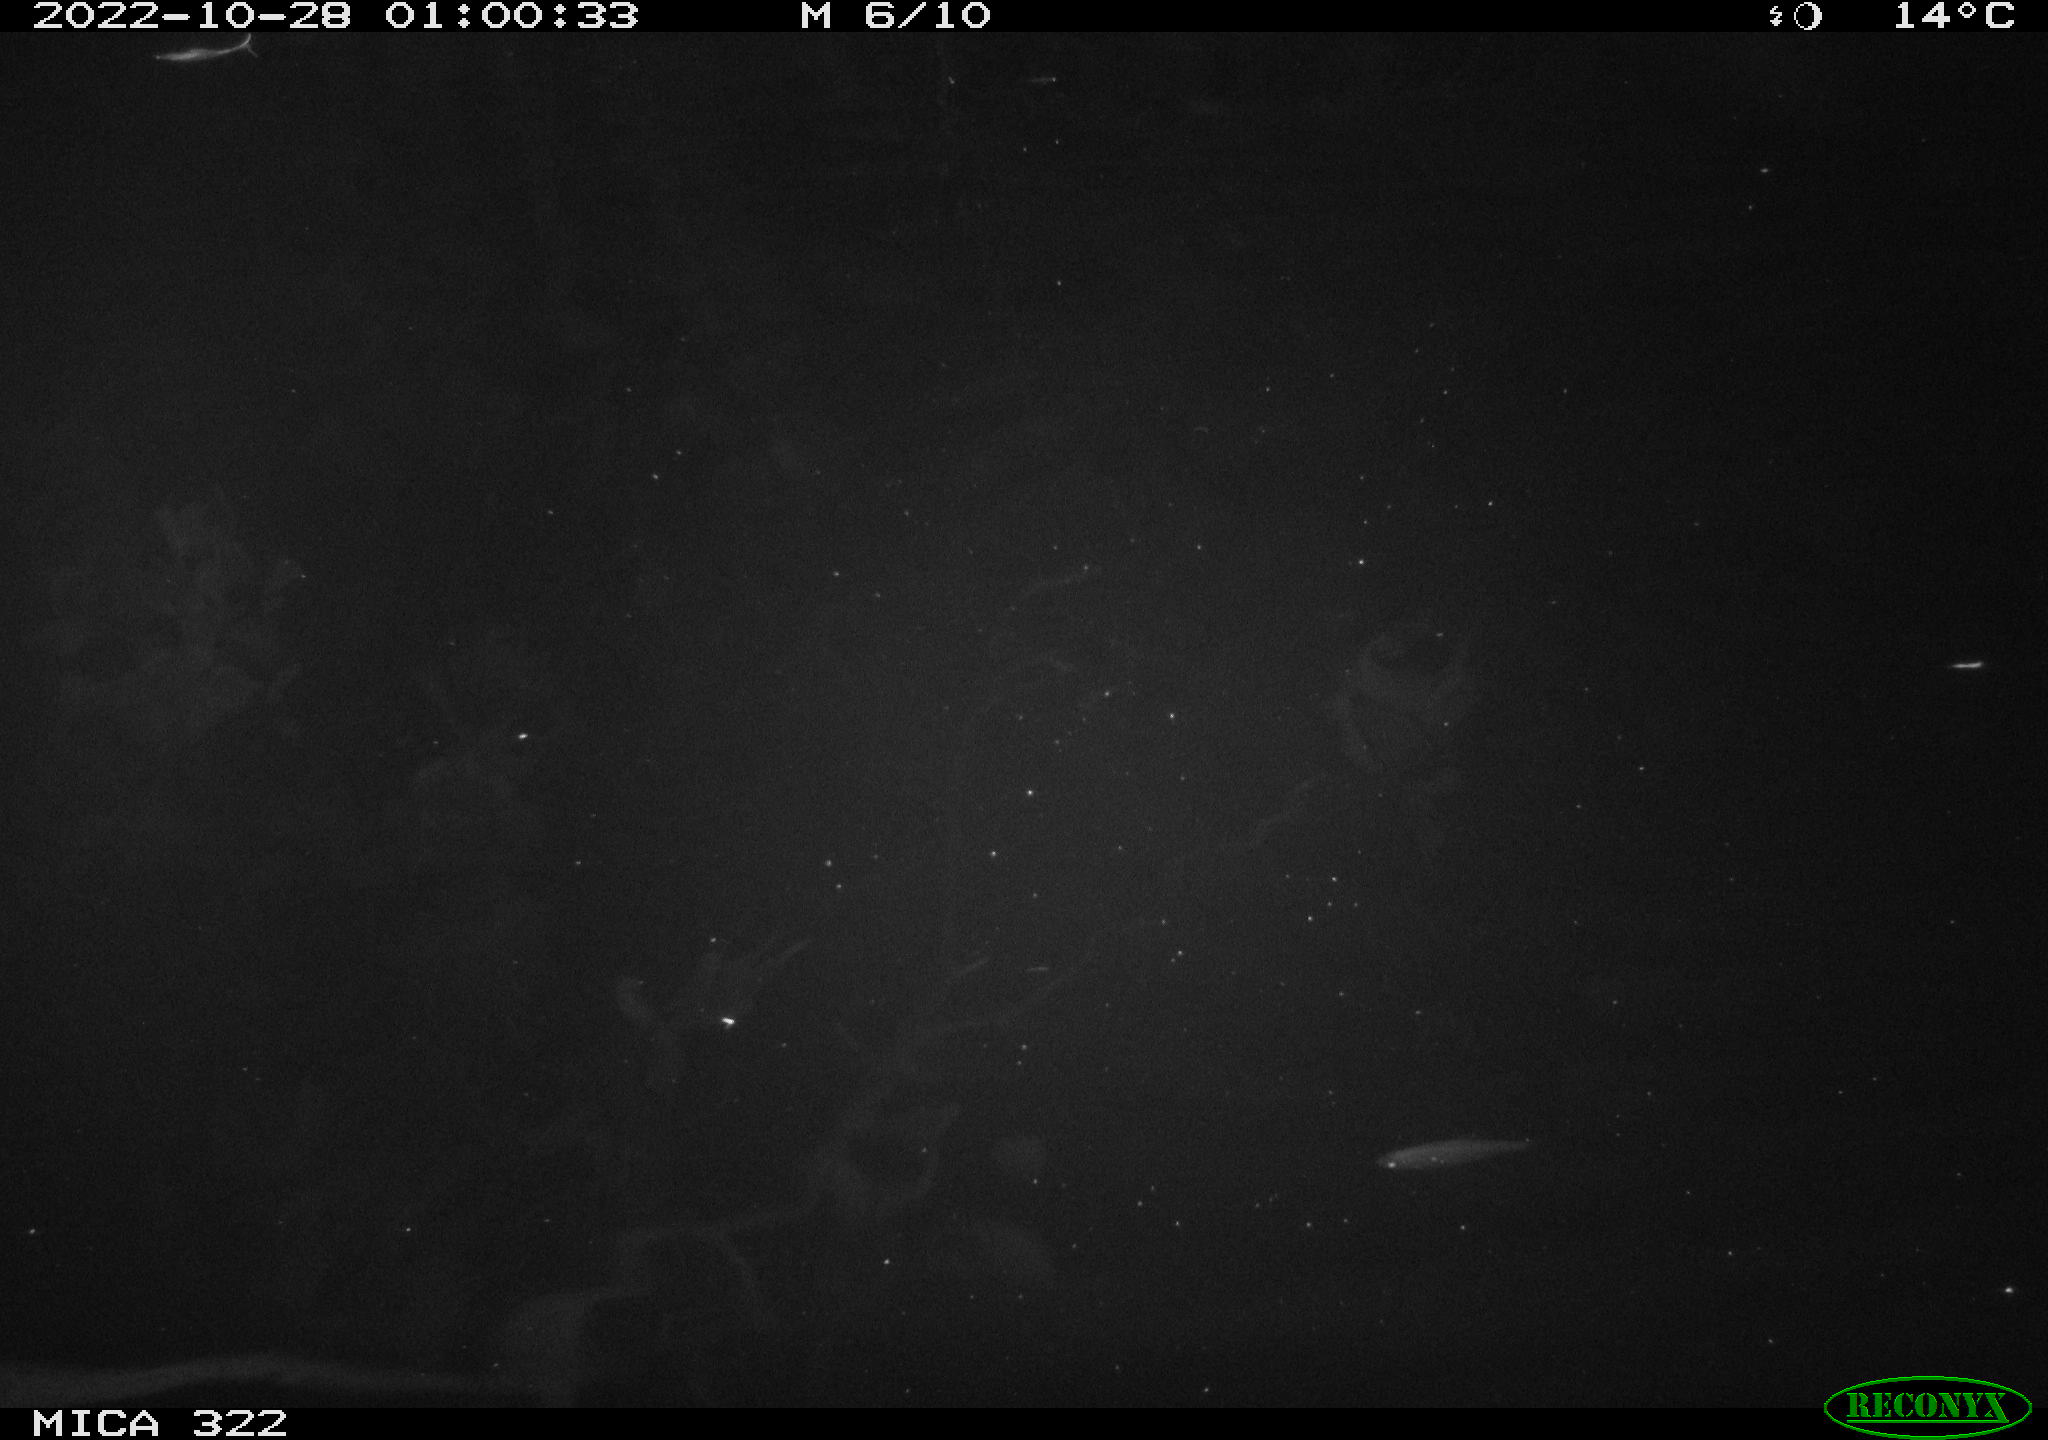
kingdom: Animalia
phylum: Chordata
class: Mammalia
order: Rodentia
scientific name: Rodentia
